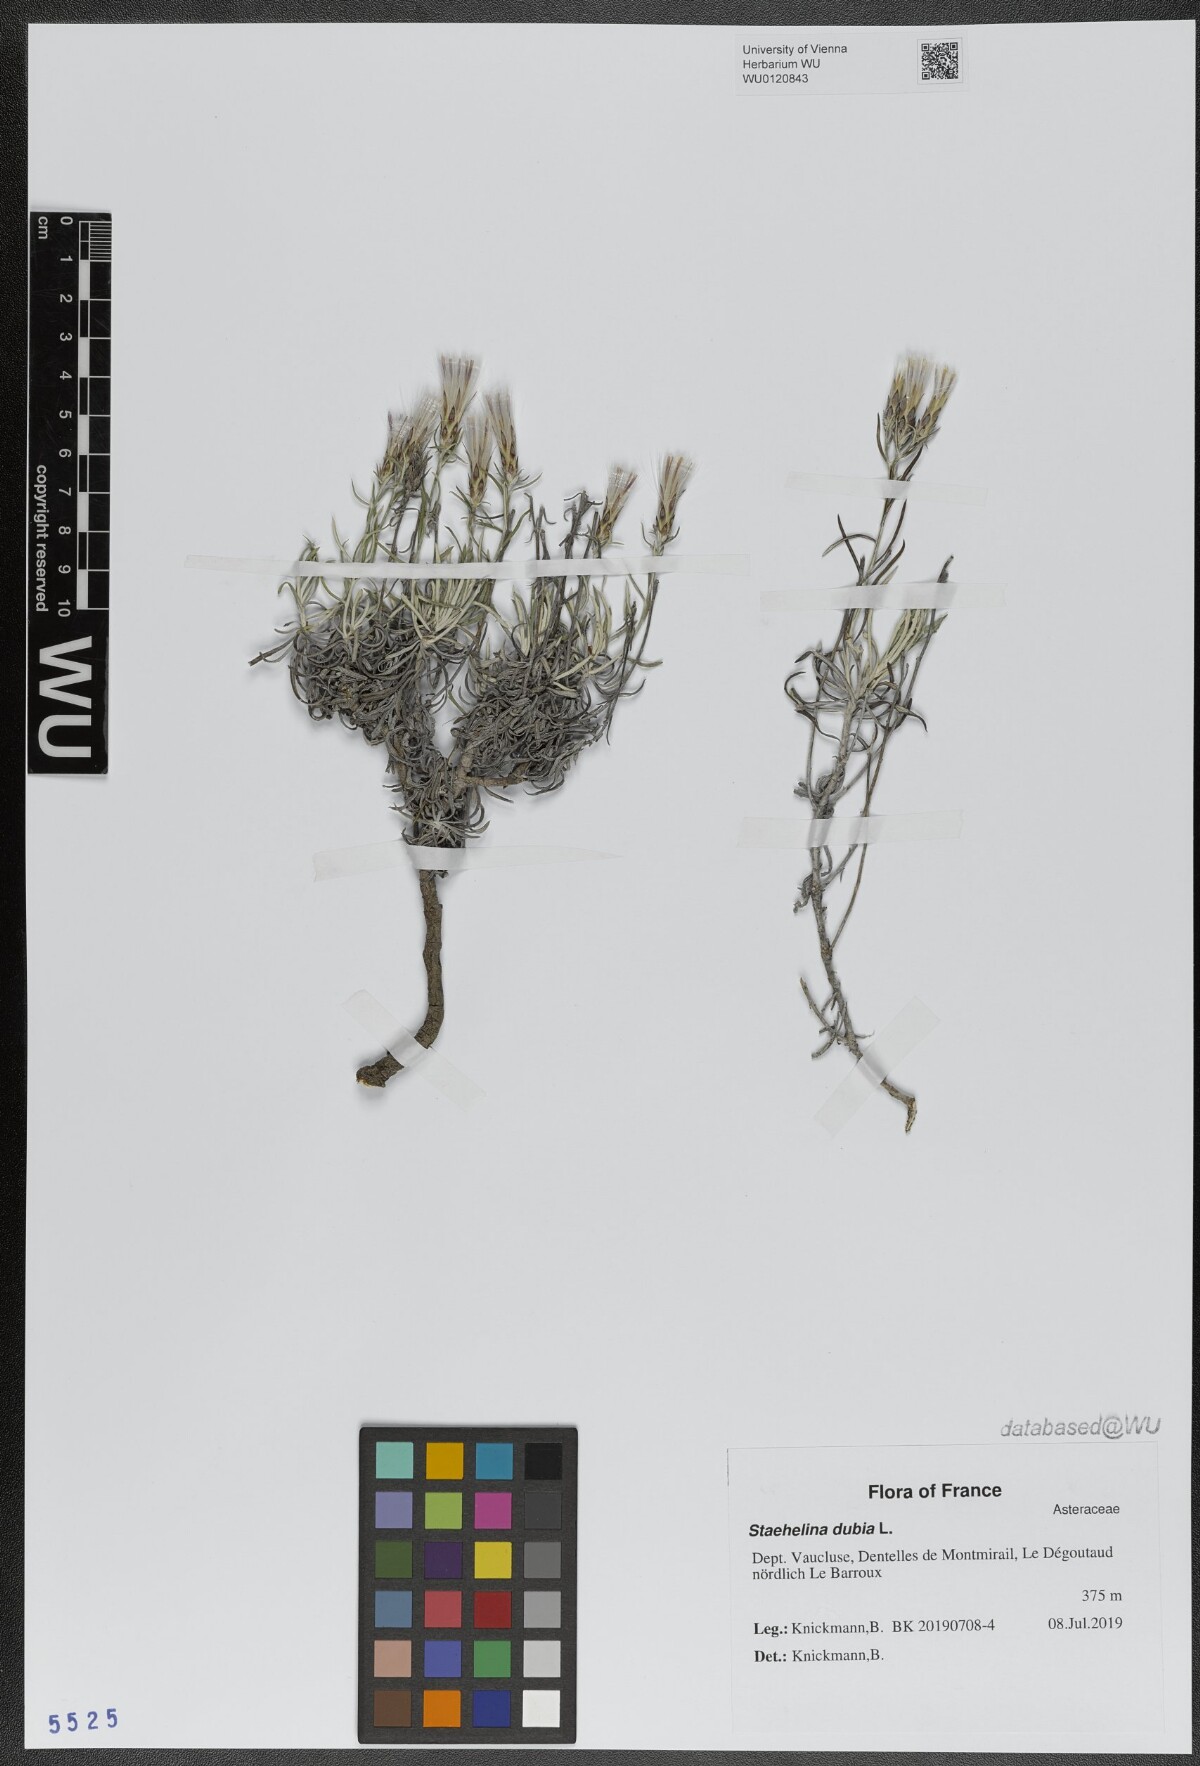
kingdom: Plantae
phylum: Tracheophyta
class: Magnoliopsida
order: Asterales
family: Asteraceae
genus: Staehelina
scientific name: Staehelina dubia
